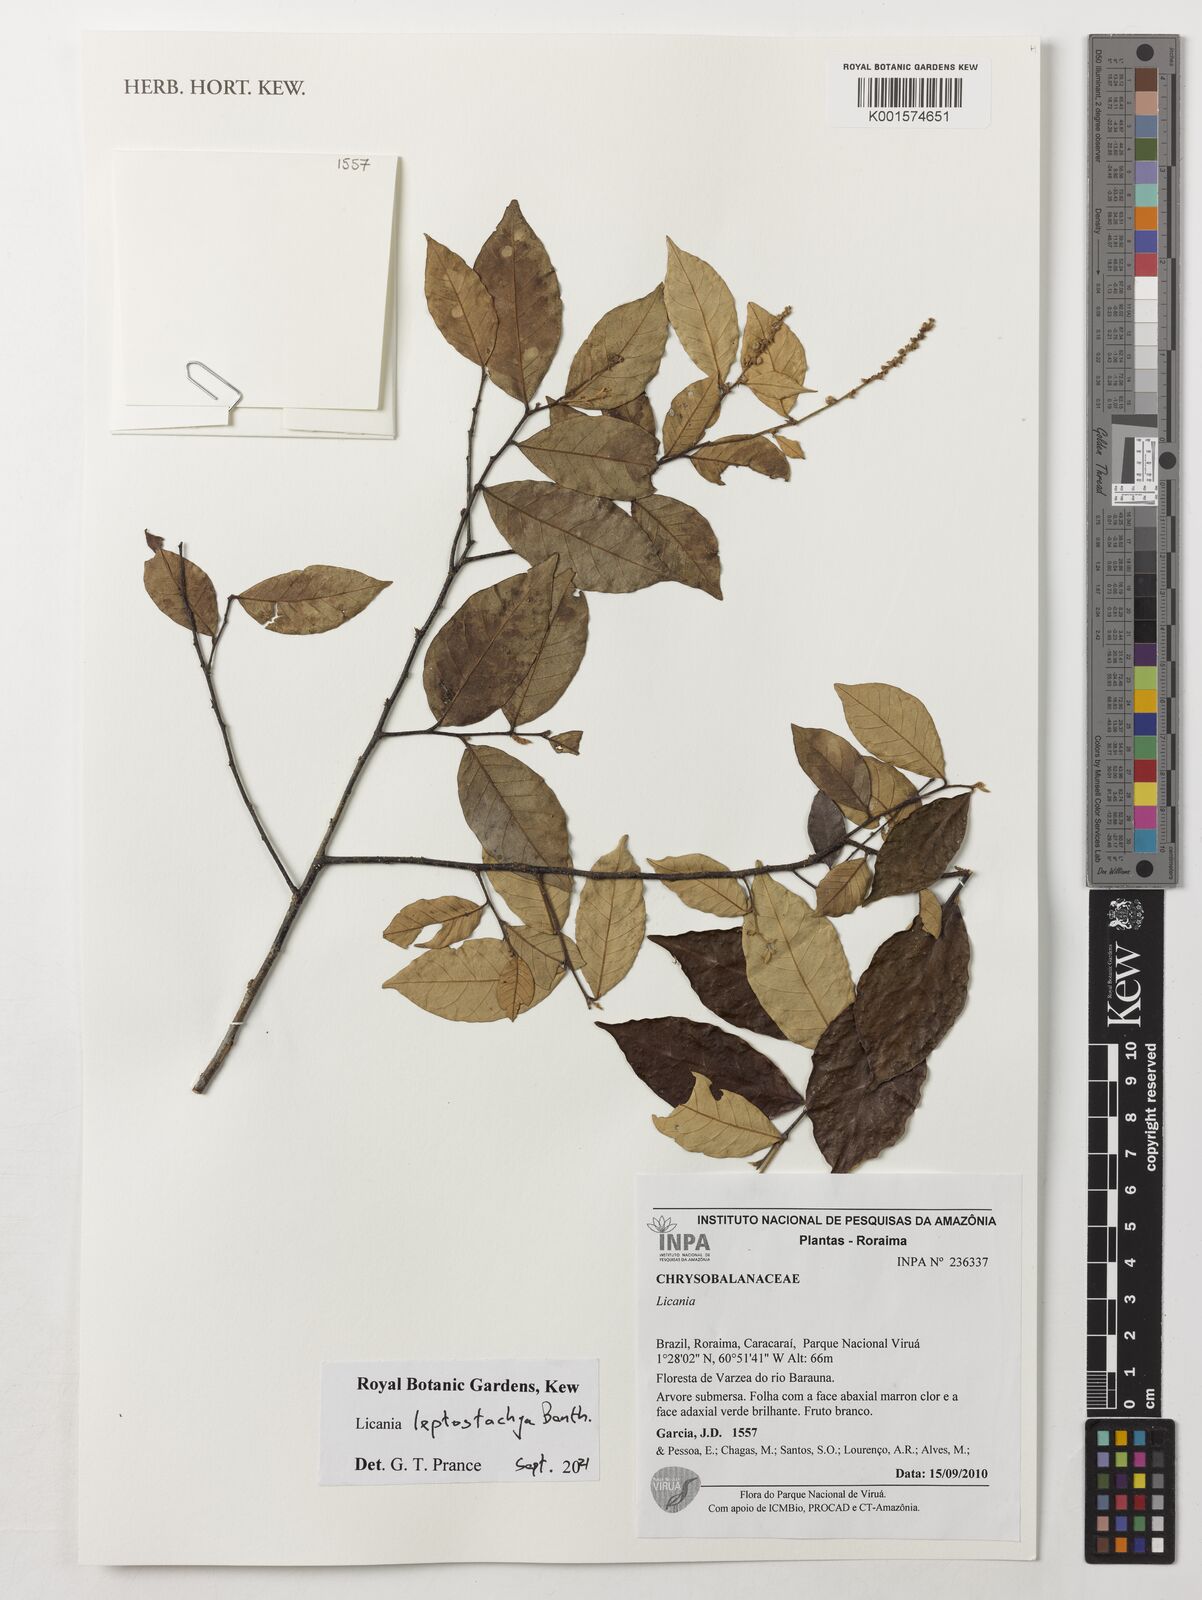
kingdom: Plantae
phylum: Tracheophyta
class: Magnoliopsida
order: Malpighiales
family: Chrysobalanaceae
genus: Licania
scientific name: Licania leptostachya
